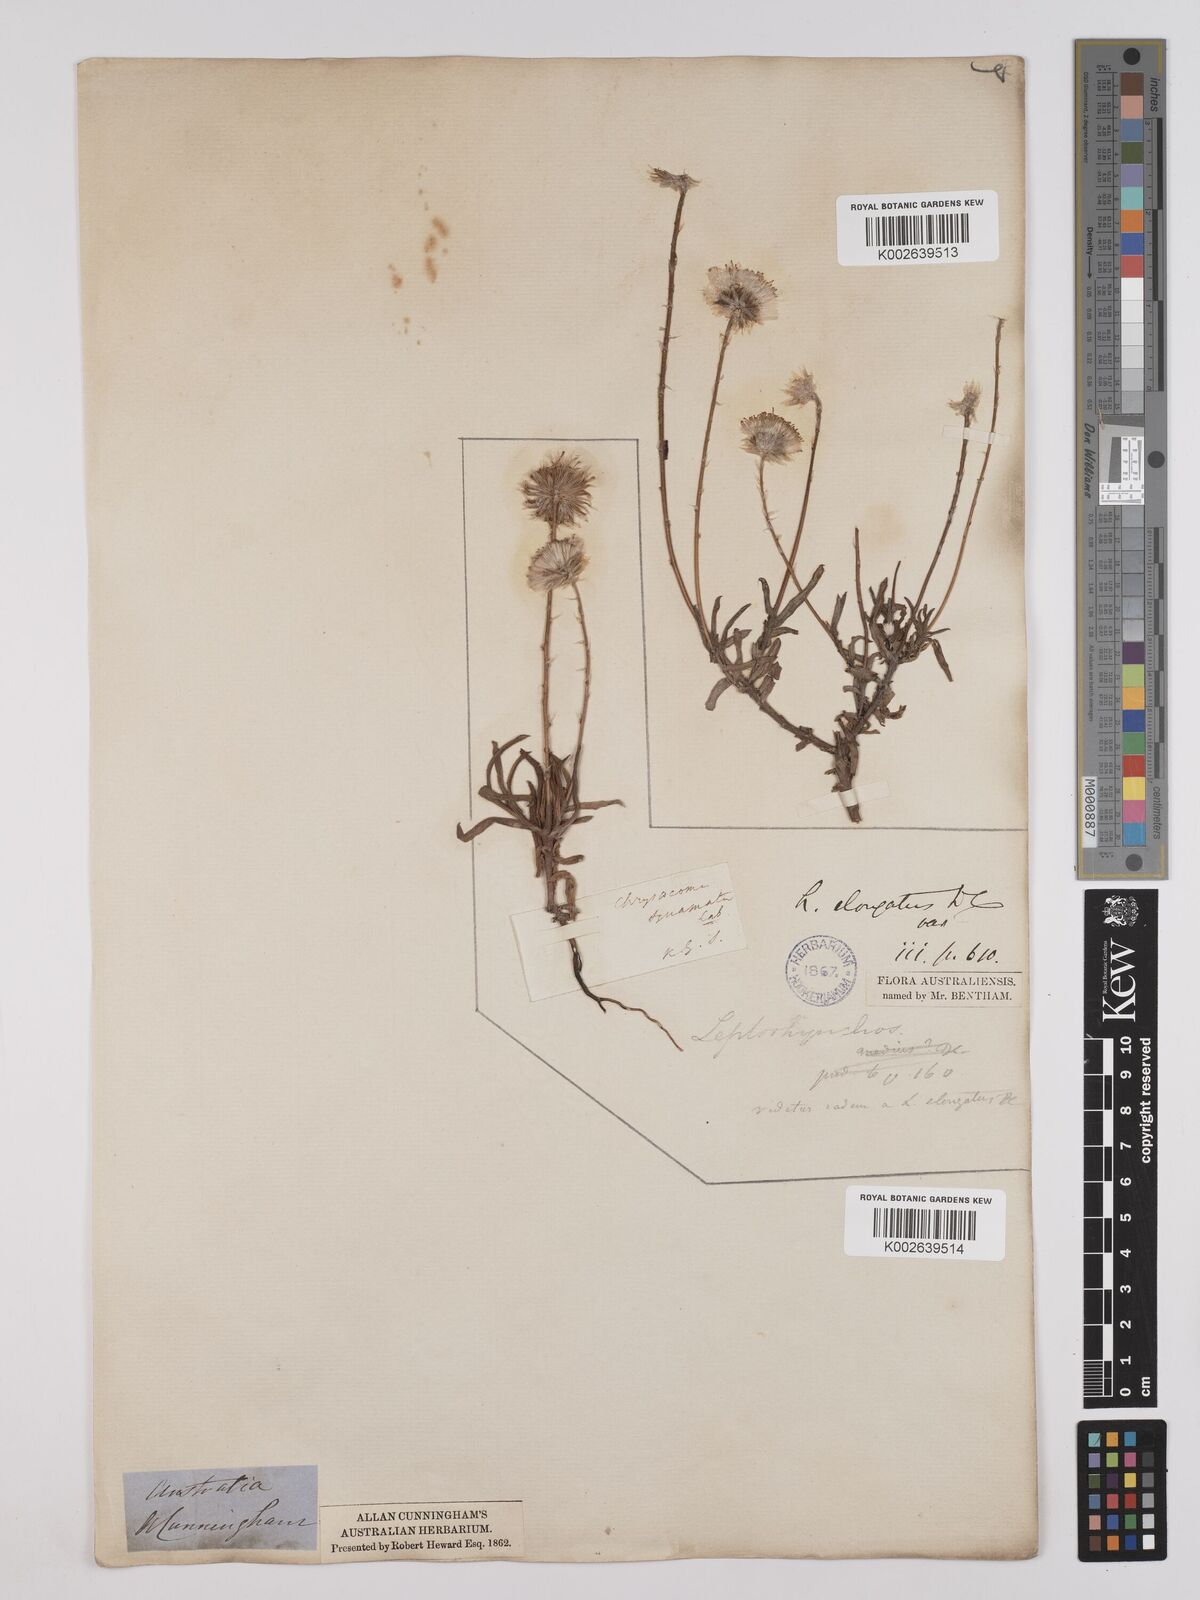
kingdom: Plantae
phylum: Tracheophyta
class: Magnoliopsida
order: Asterales
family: Asteraceae
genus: Leptorhynchos
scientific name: Leptorhynchos elongatus
